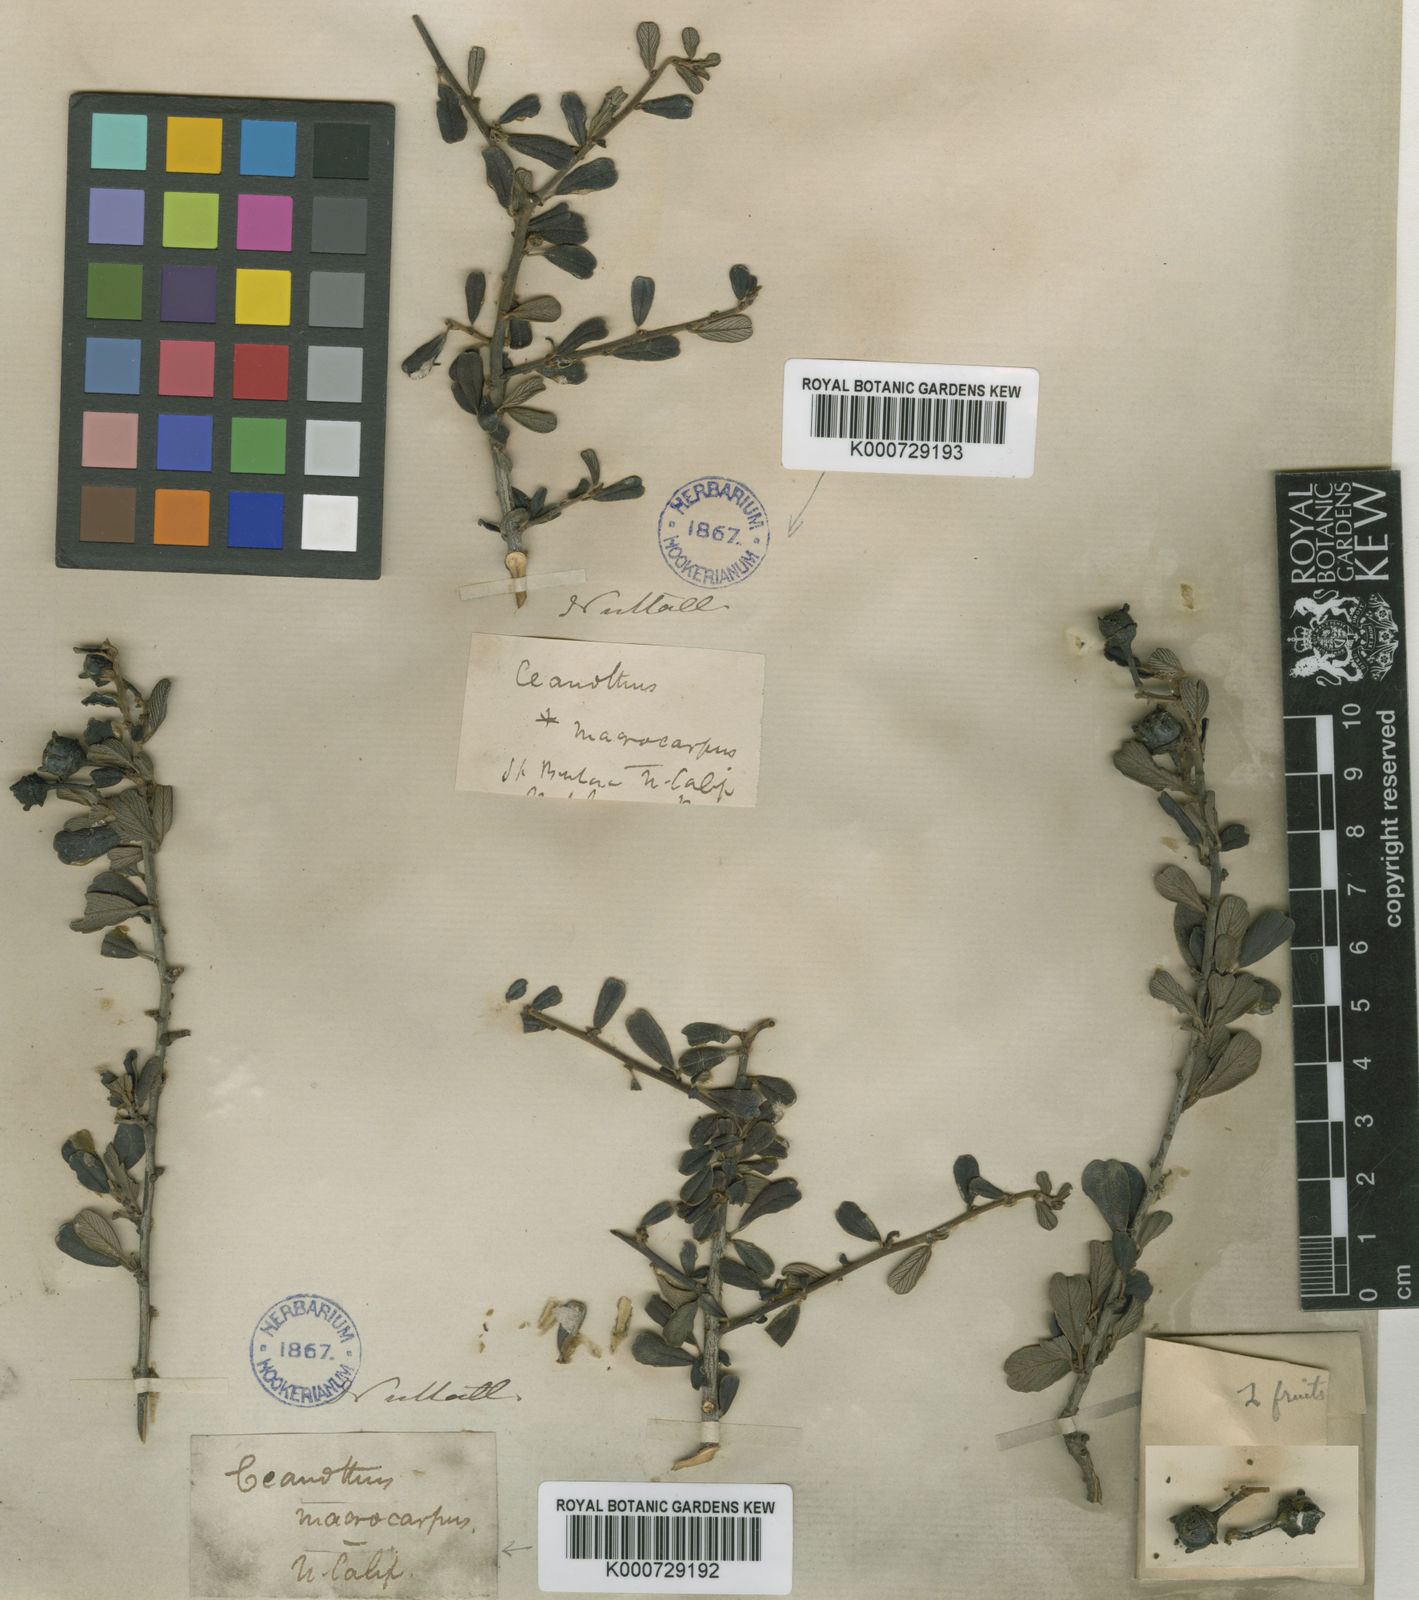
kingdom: Plantae
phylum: Tracheophyta
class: Magnoliopsida
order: Rosales
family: Rhamnaceae
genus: Ceanothus
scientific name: Ceanothus megacarpus
